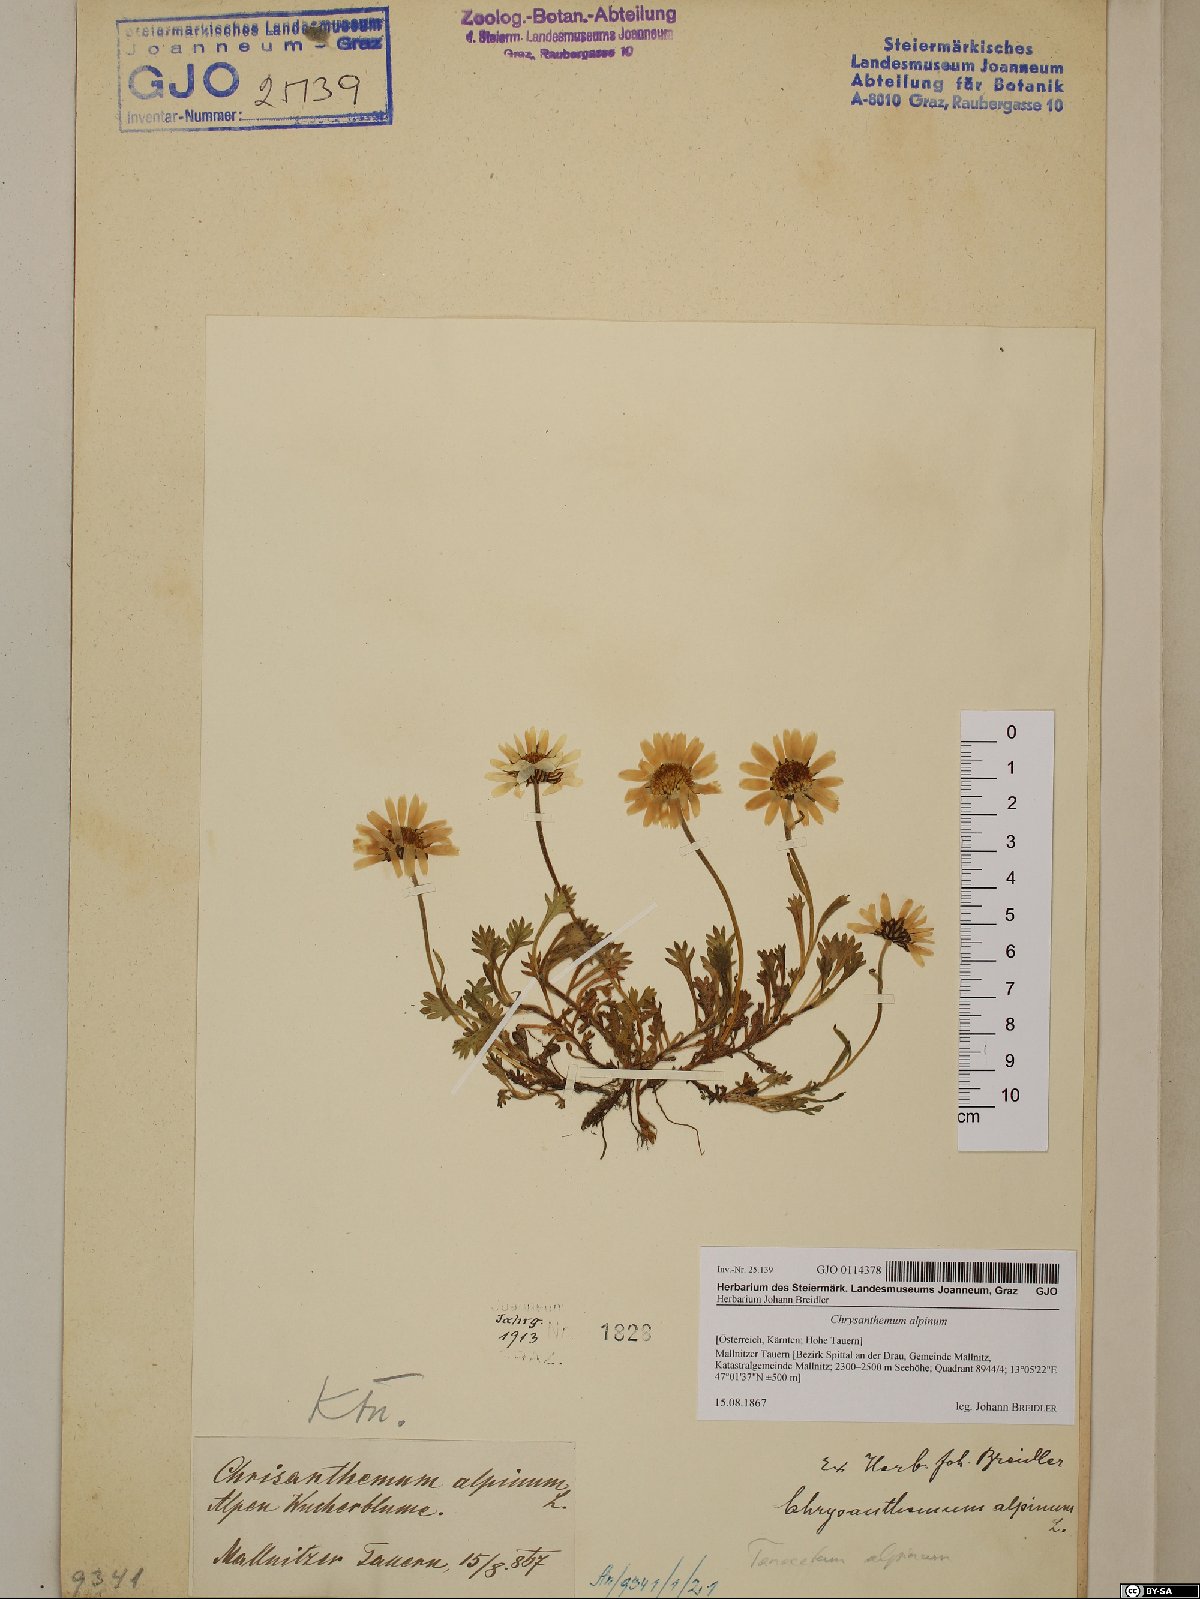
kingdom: Plantae
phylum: Tracheophyta
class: Magnoliopsida
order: Asterales
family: Asteraceae
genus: Leucanthemopsis
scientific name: Leucanthemopsis alpina
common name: Alpine moon daisy
